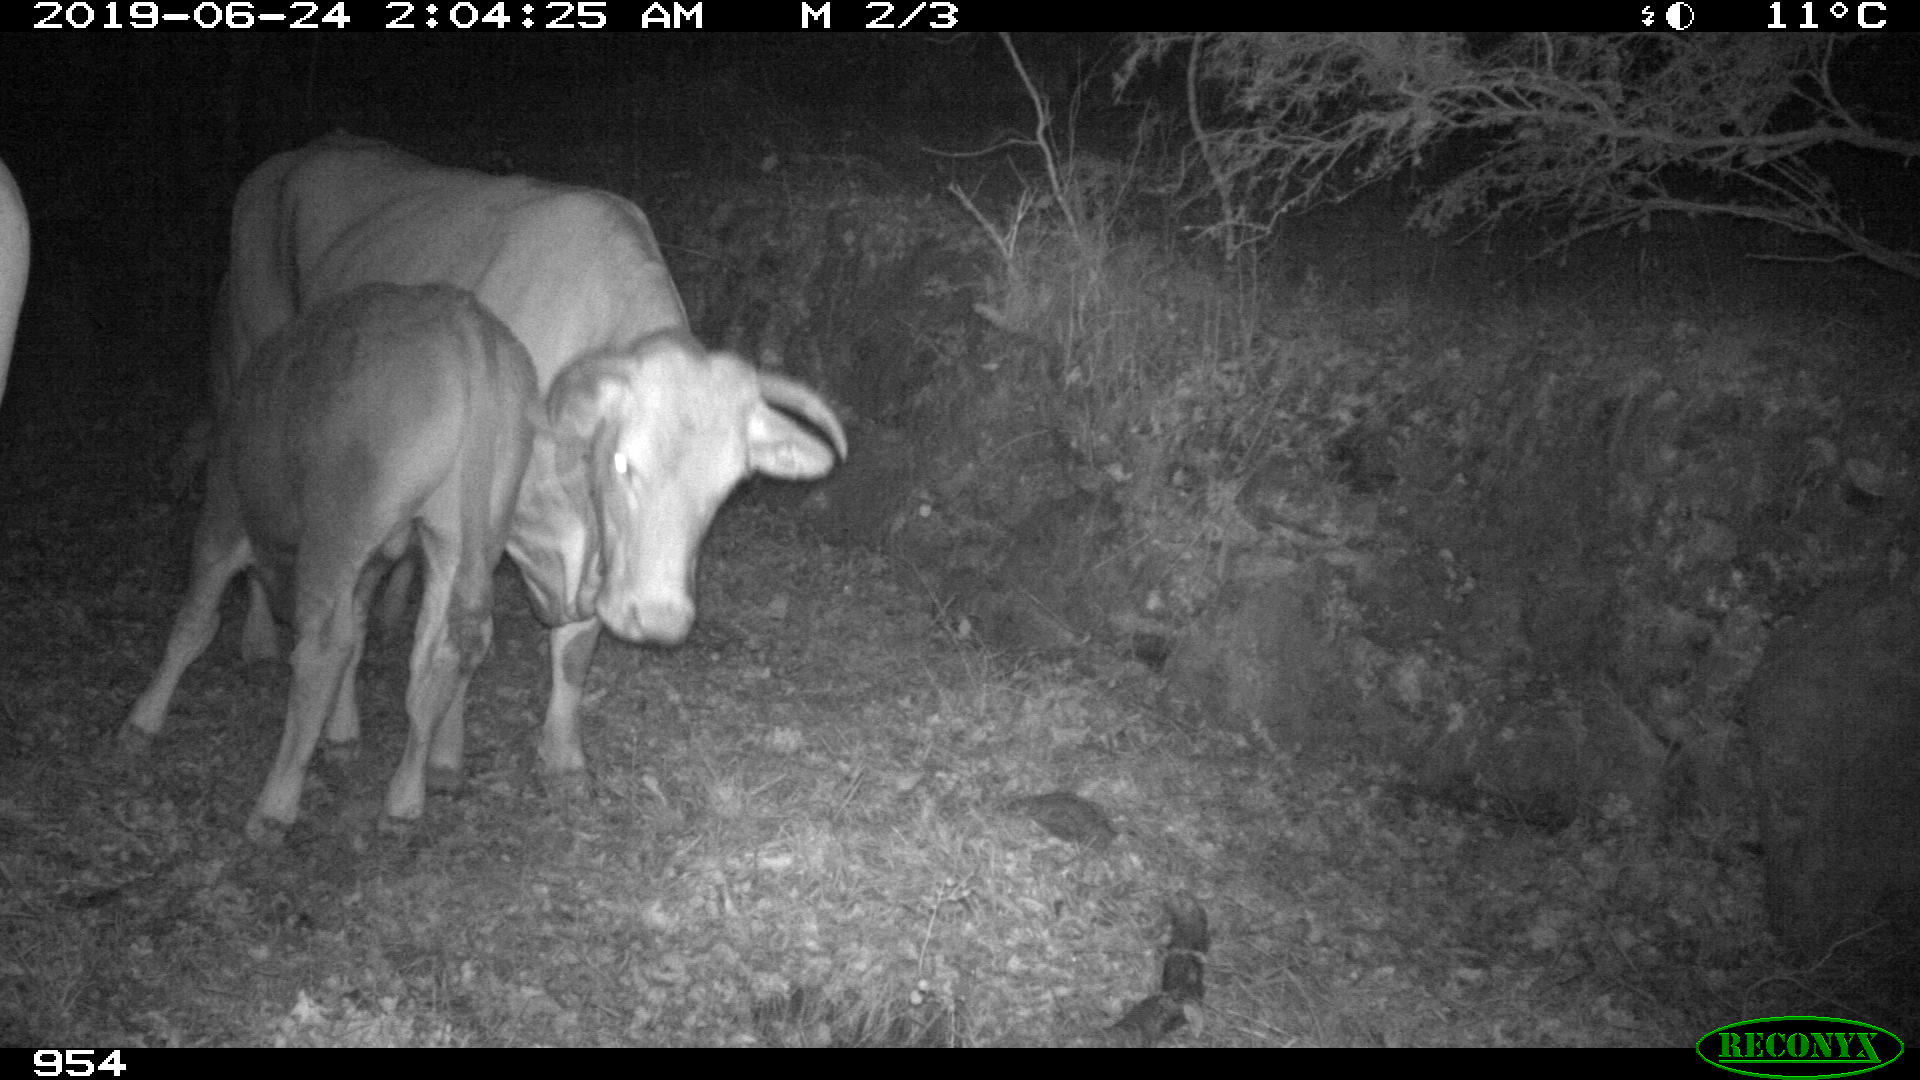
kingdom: Animalia
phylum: Chordata
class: Mammalia
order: Artiodactyla
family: Bovidae
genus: Bos
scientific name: Bos taurus
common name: Domesticated cattle
